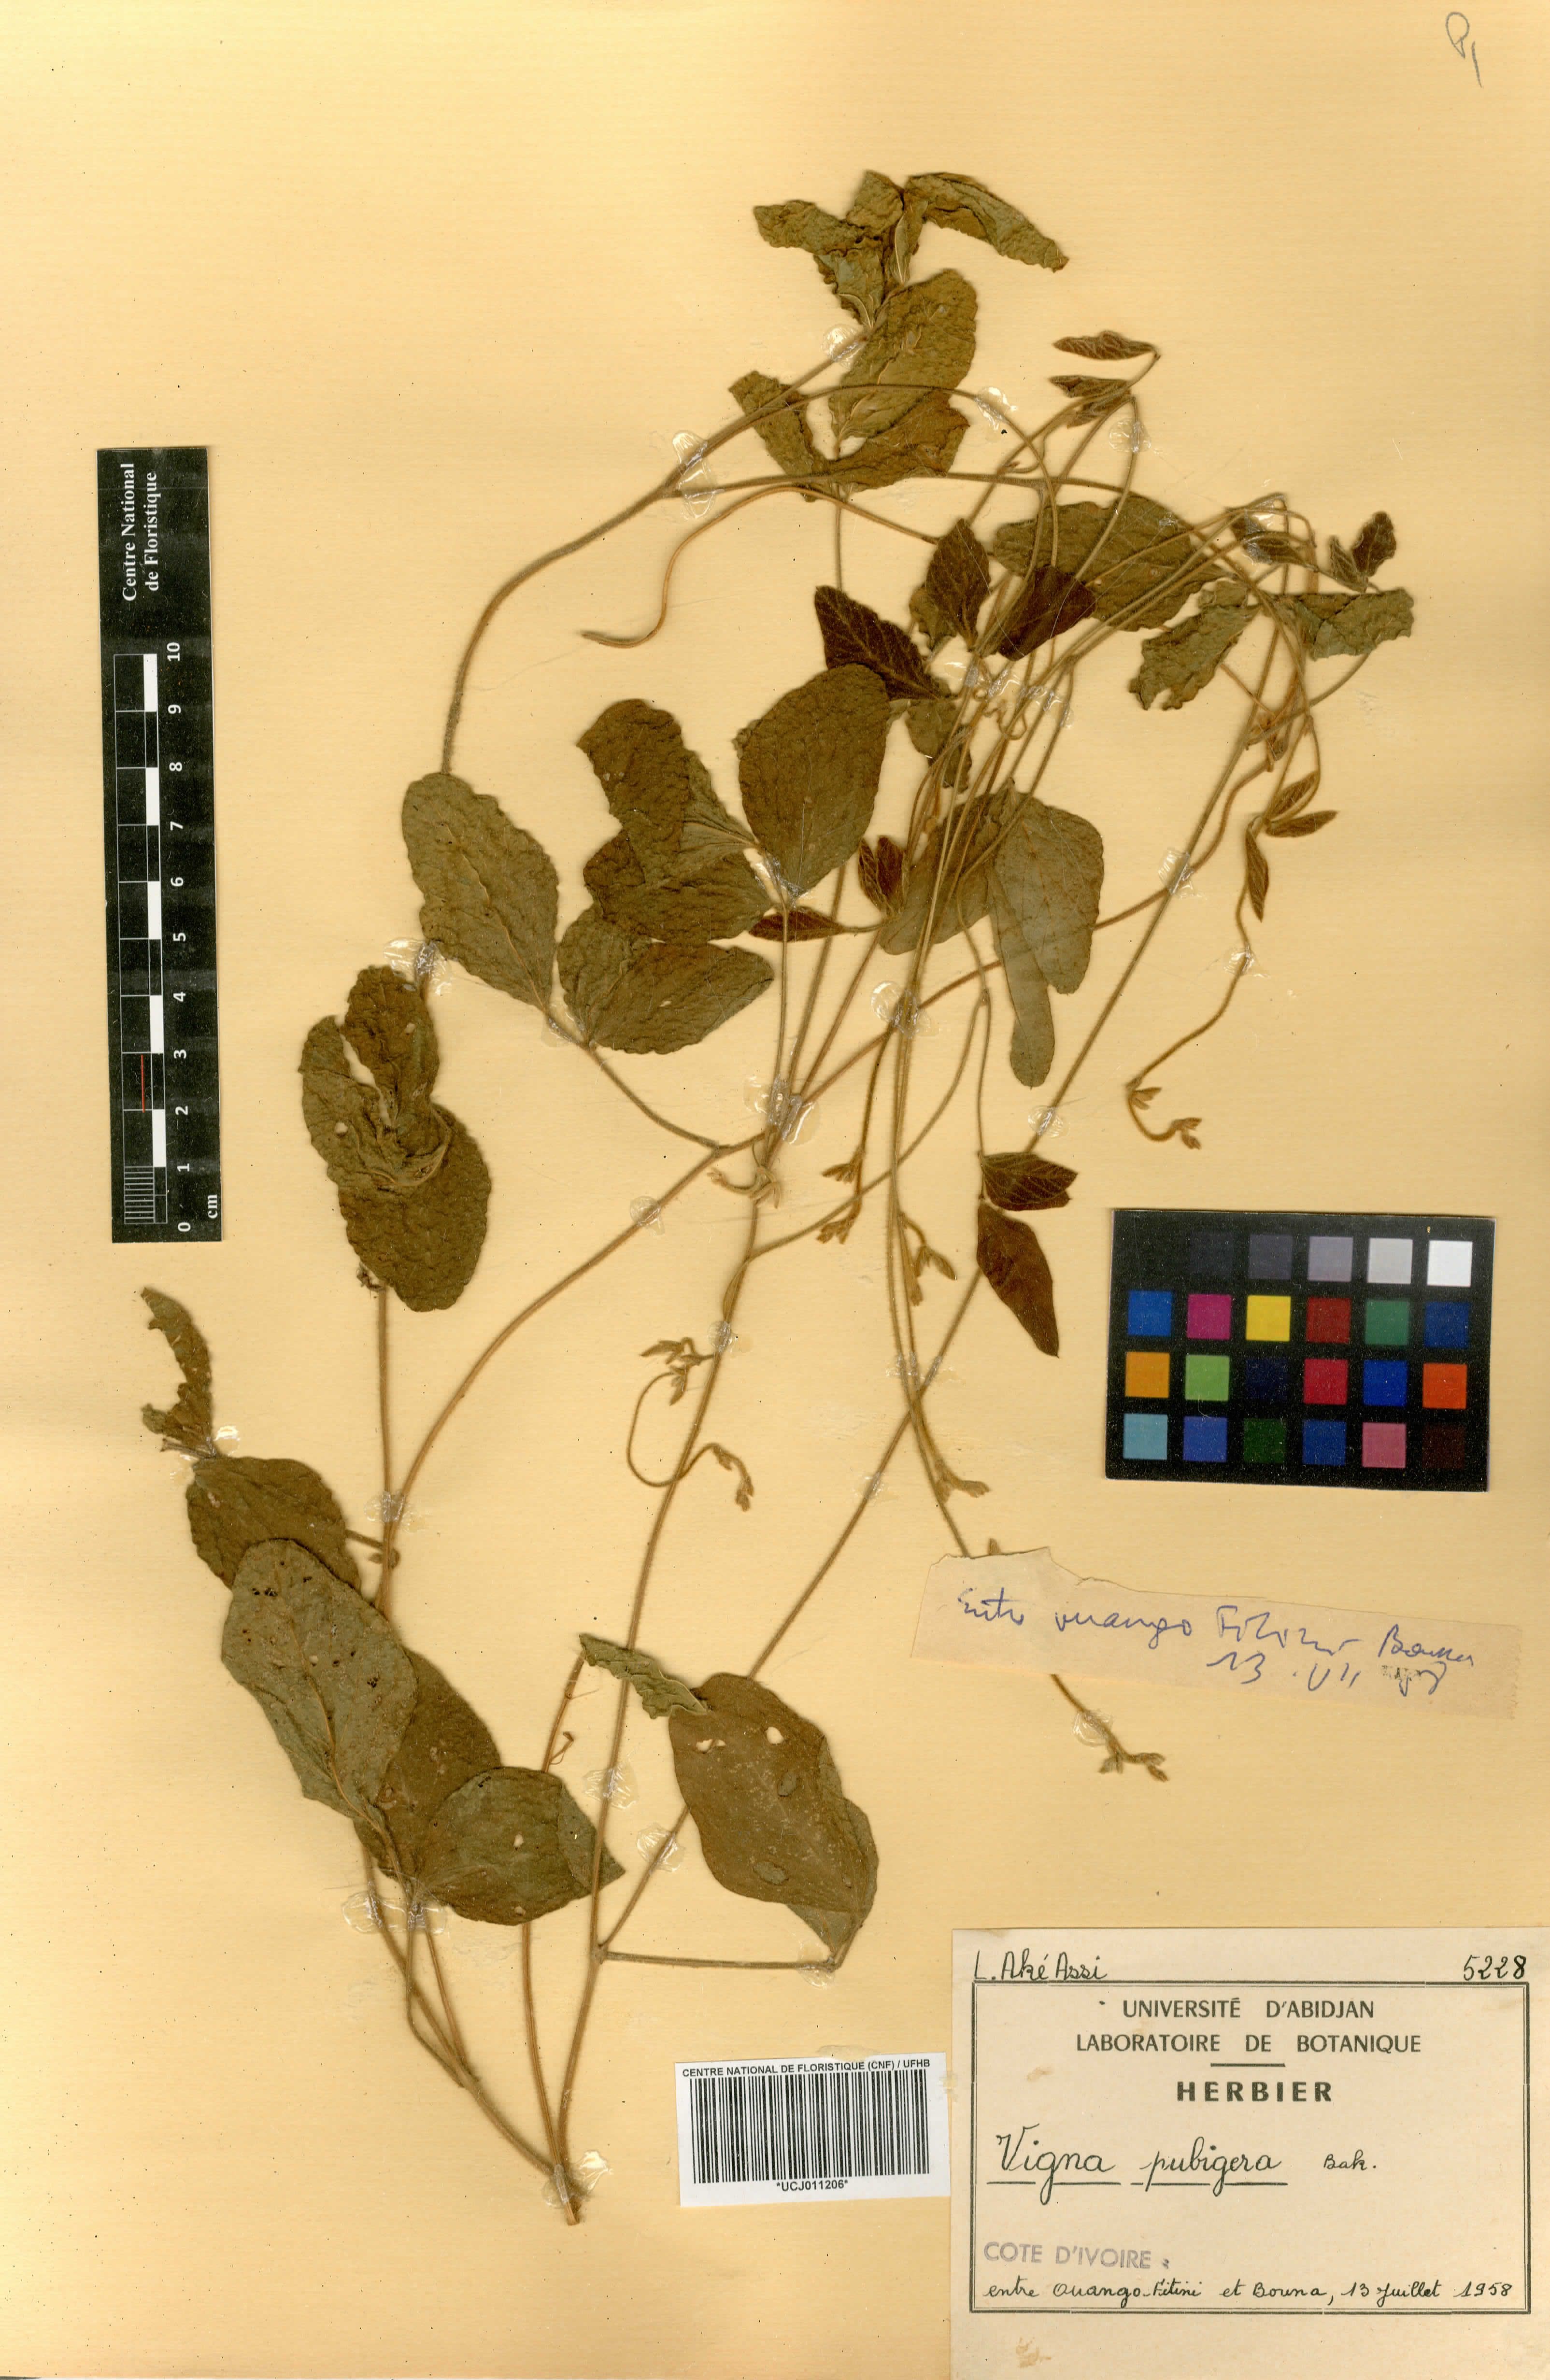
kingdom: Plantae
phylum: Tracheophyta
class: Magnoliopsida
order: Fabales
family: Fabaceae
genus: Vigna
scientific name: Vigna pubigera
